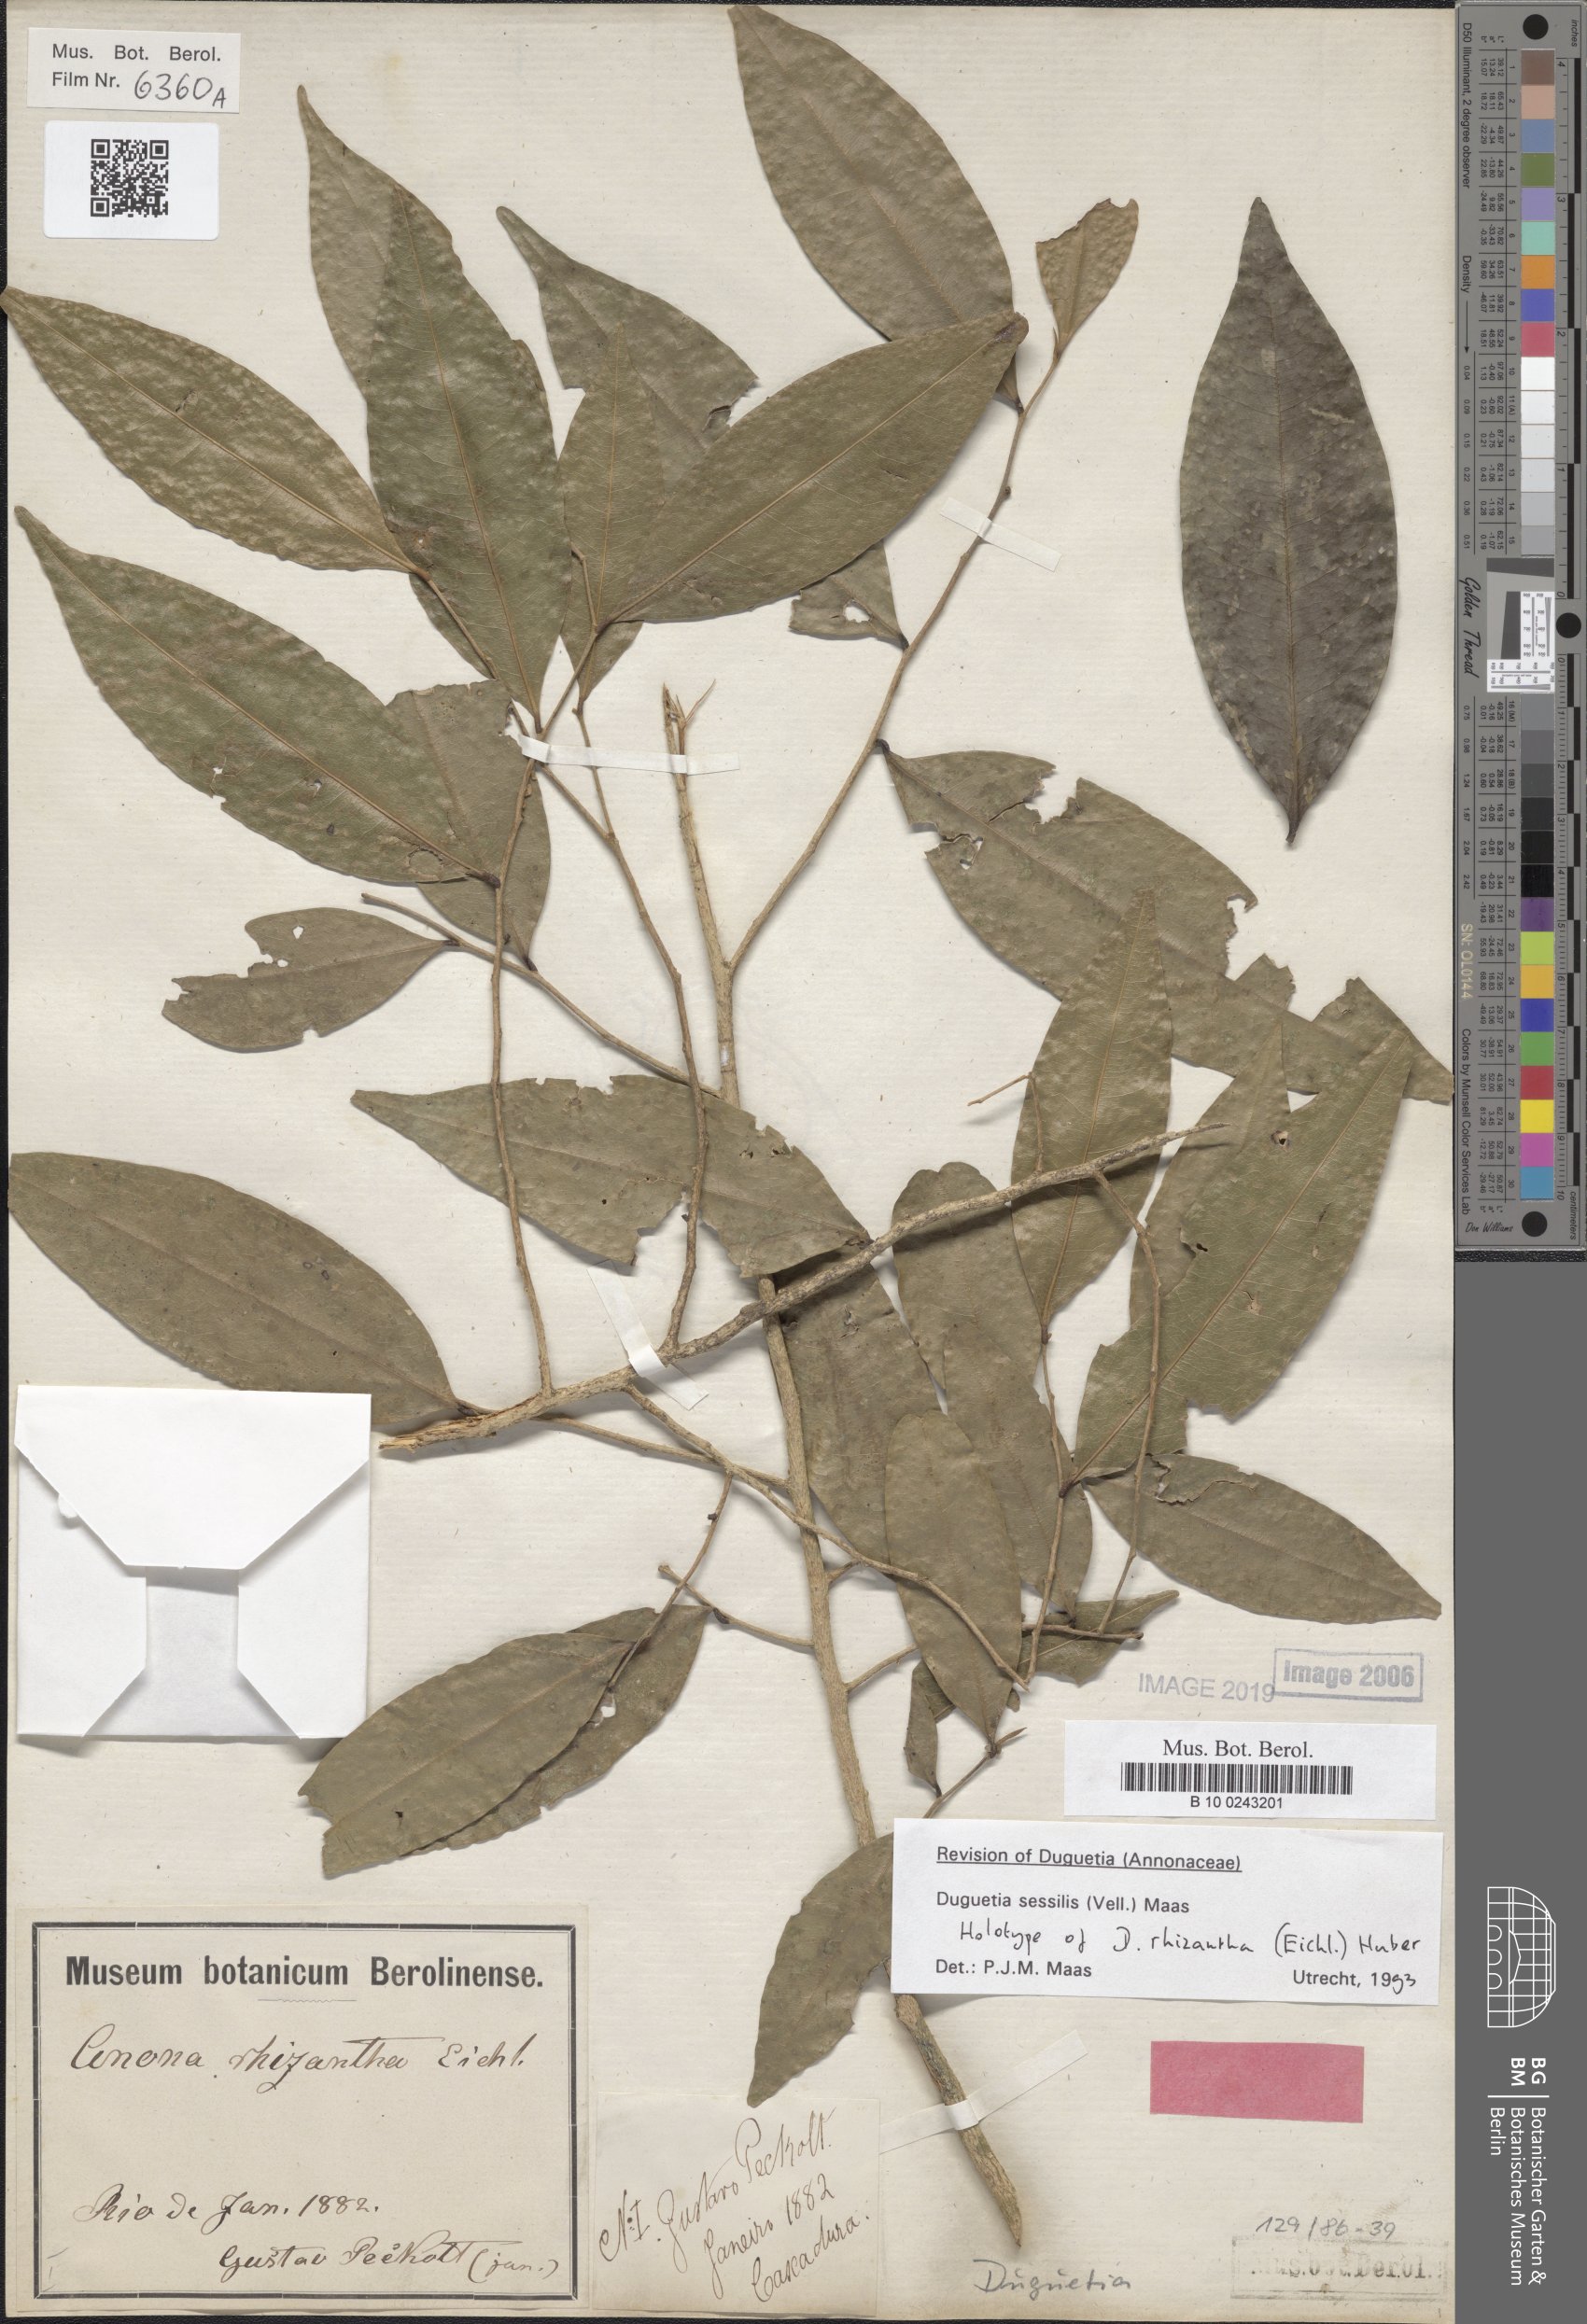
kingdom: Plantae
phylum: Tracheophyta
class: Magnoliopsida
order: Magnoliales
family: Annonaceae
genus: Duguetia
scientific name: Duguetia sessilis
